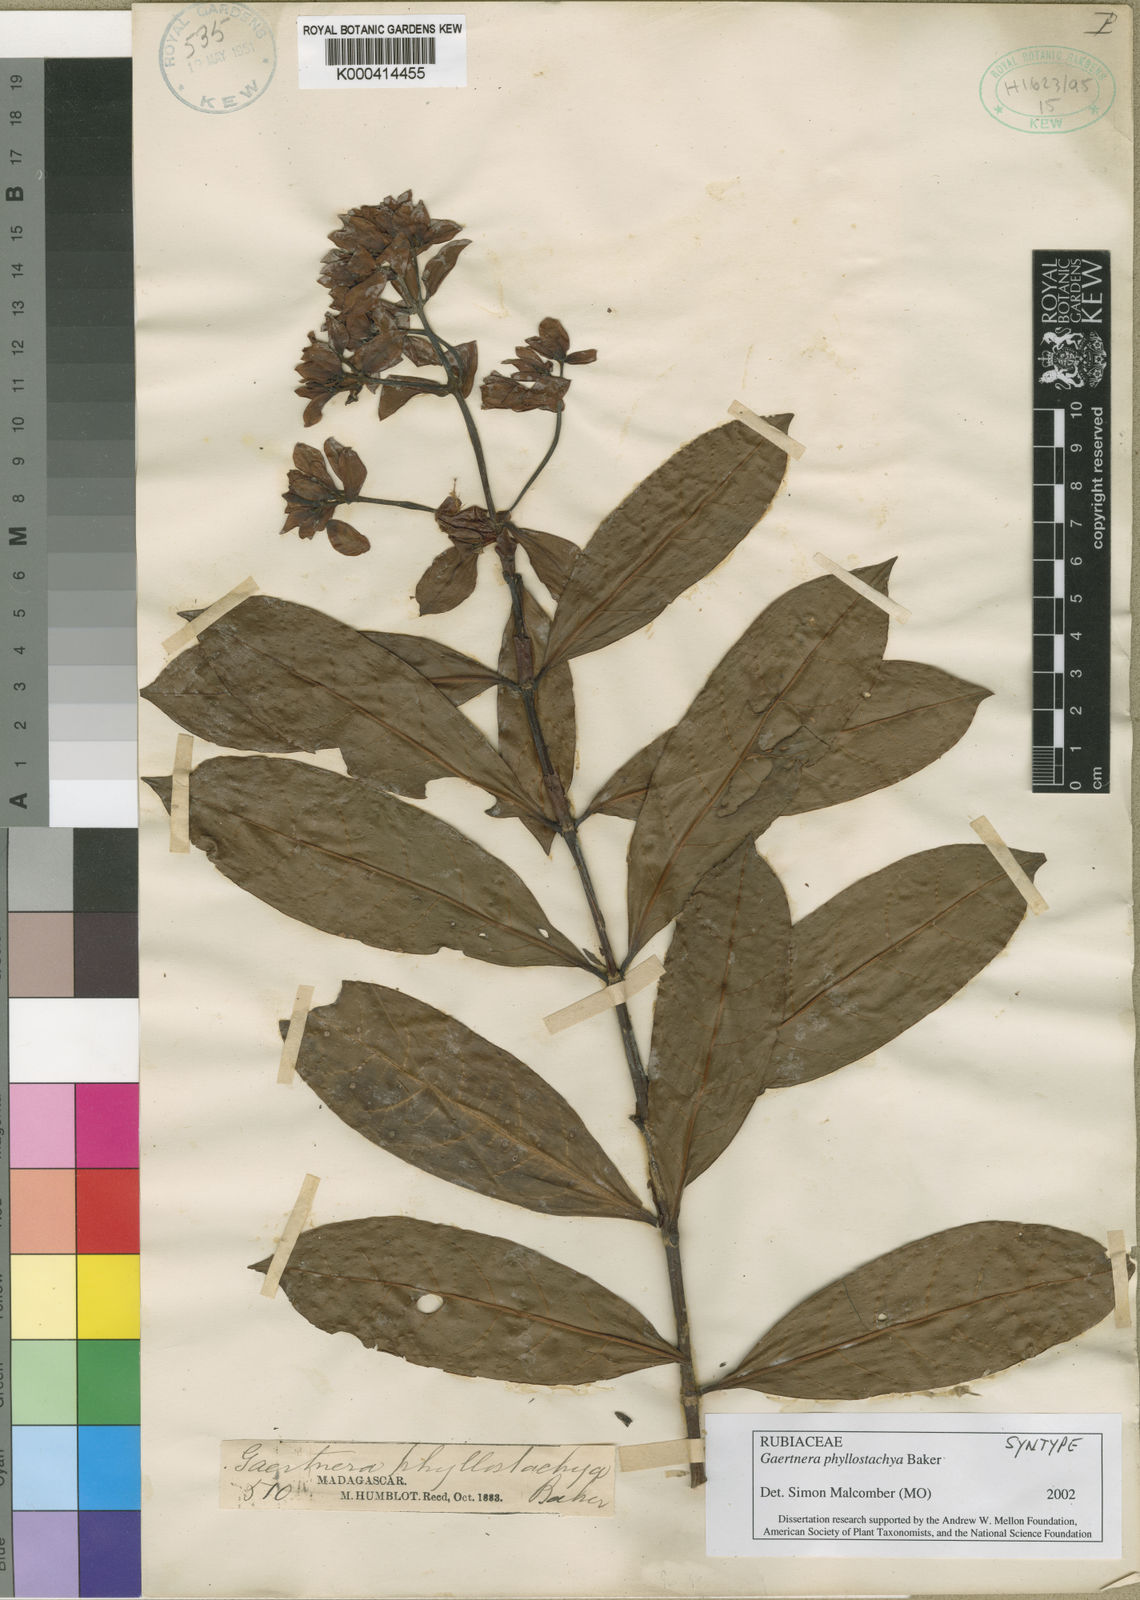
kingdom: Plantae
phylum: Tracheophyta
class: Magnoliopsida
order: Gentianales
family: Rubiaceae
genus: Gaertnera
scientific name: Gaertnera phyllostachya
